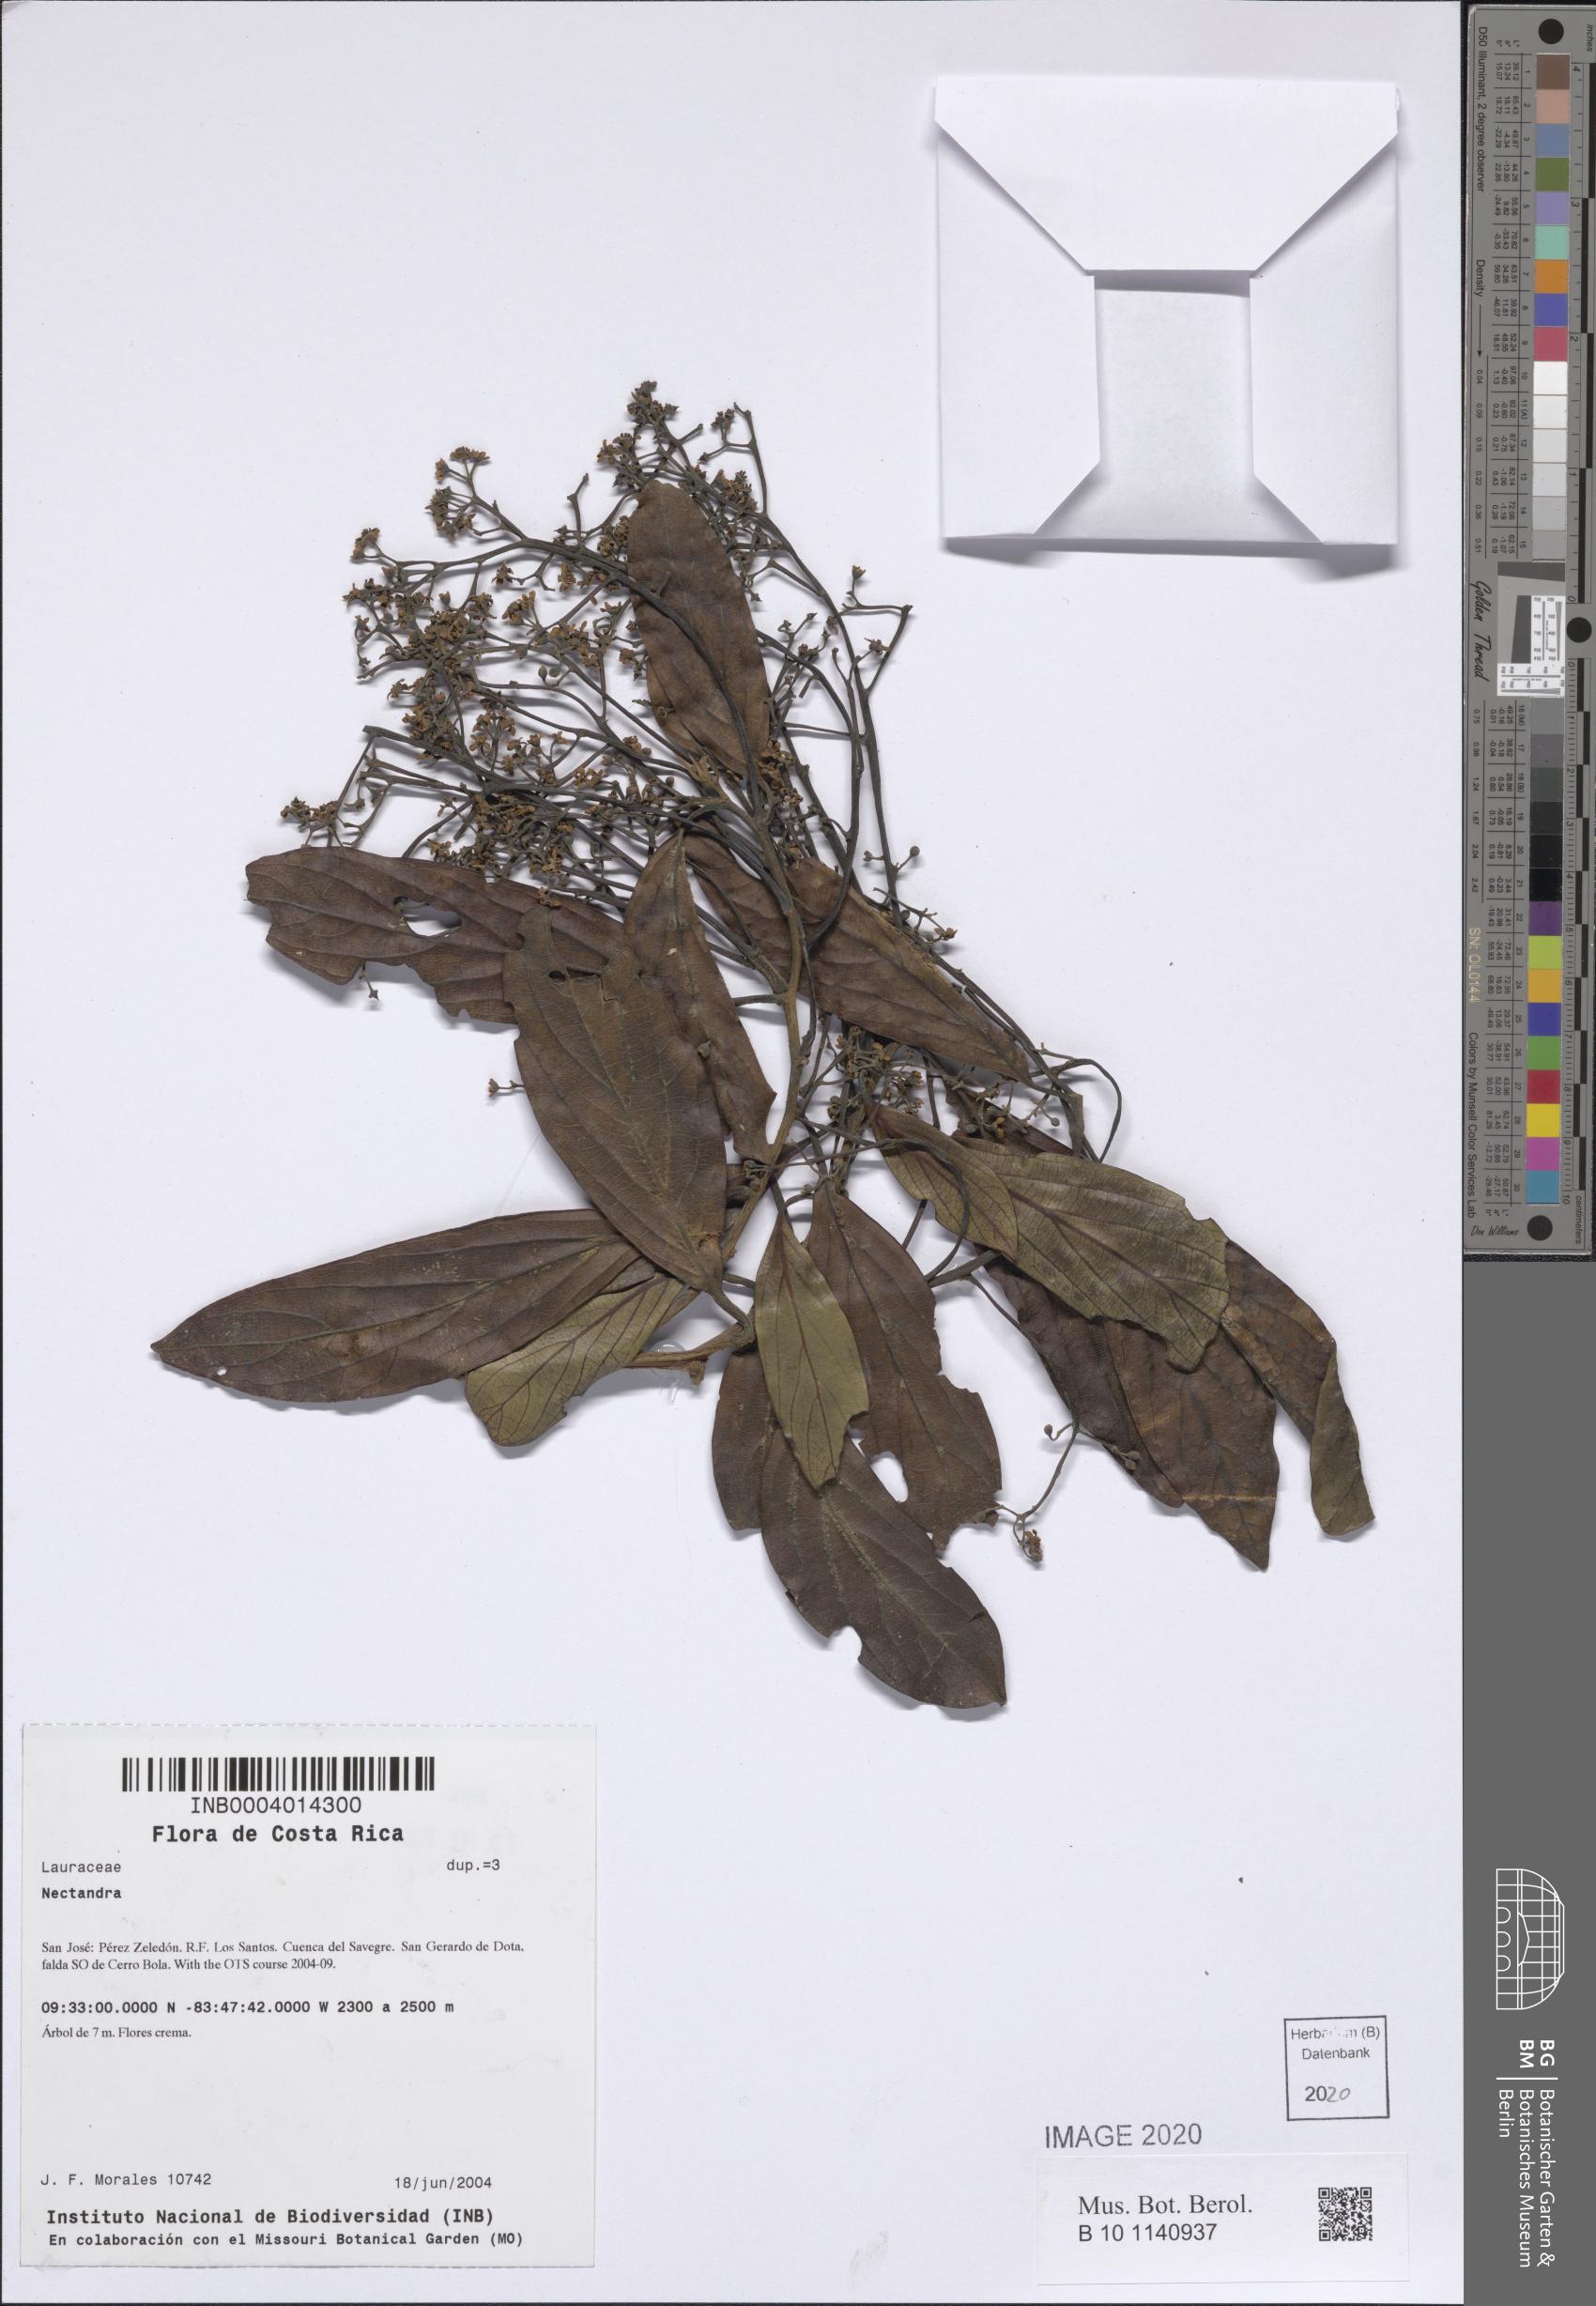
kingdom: Plantae
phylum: Tracheophyta
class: Magnoliopsida
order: Laurales
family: Lauraceae
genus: Nectandra
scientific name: Nectandra
